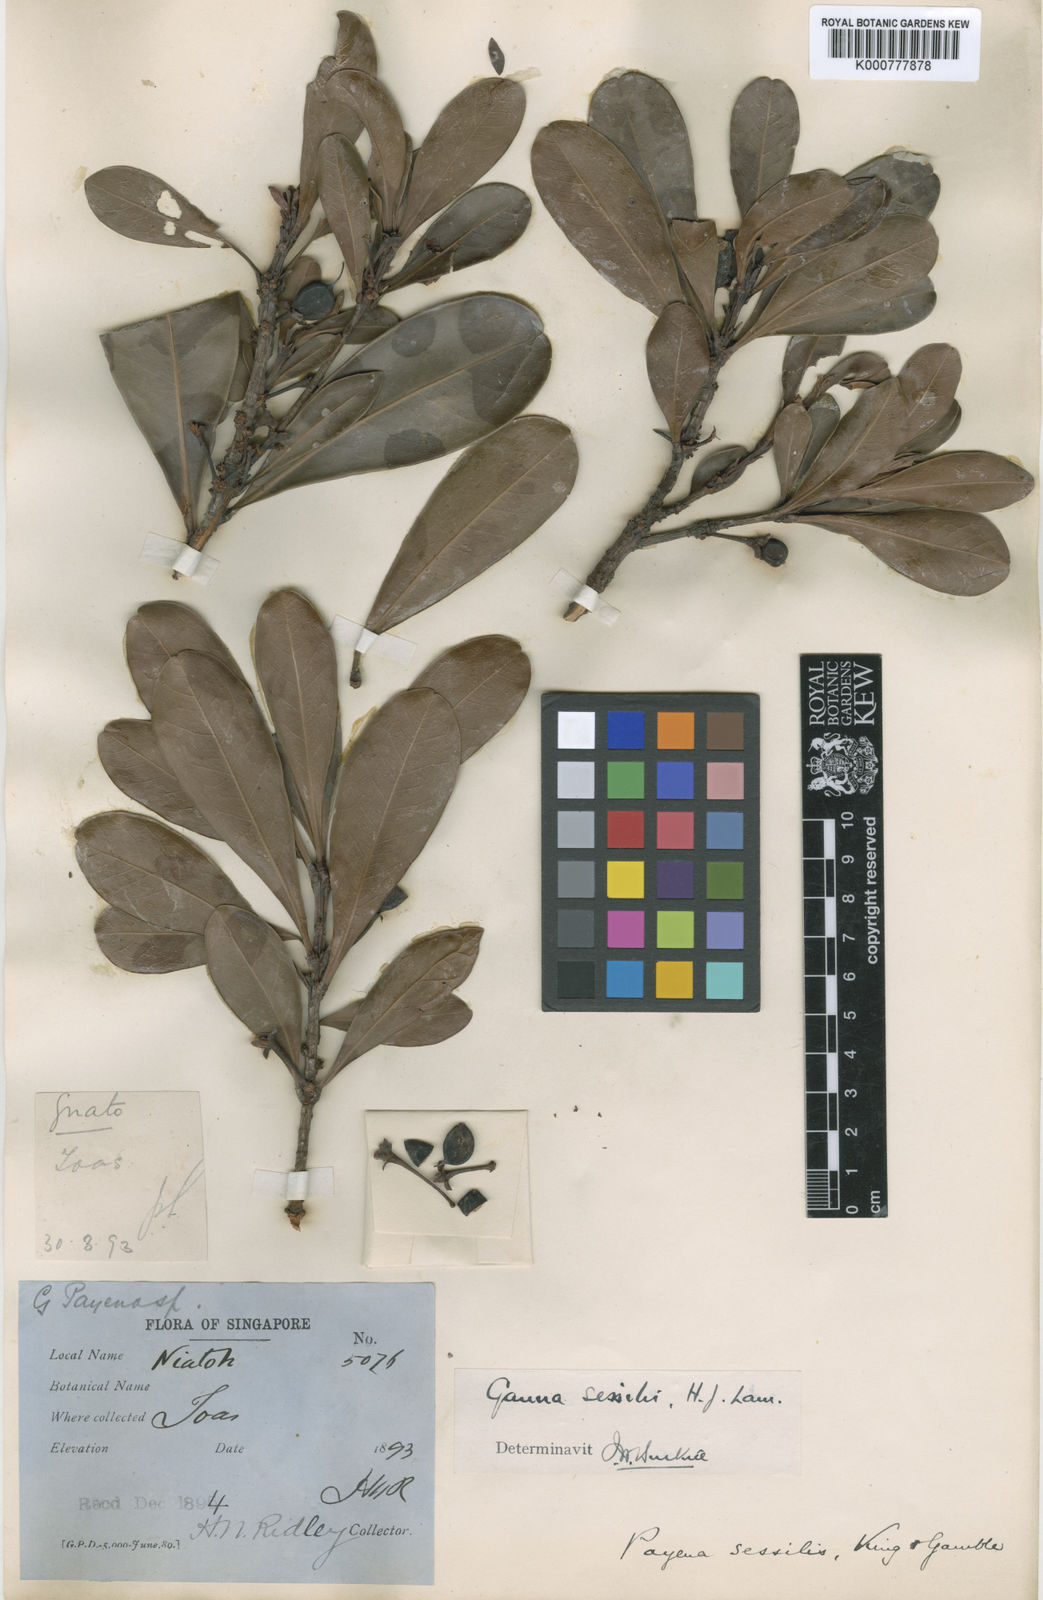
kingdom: Plantae
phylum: Tracheophyta
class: Magnoliopsida
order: Ericales
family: Sapotaceae
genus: Madhuca
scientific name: Madhuca sessilis
